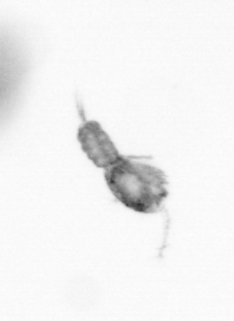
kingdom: Animalia
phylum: Arthropoda
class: Copepoda
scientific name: Copepoda
